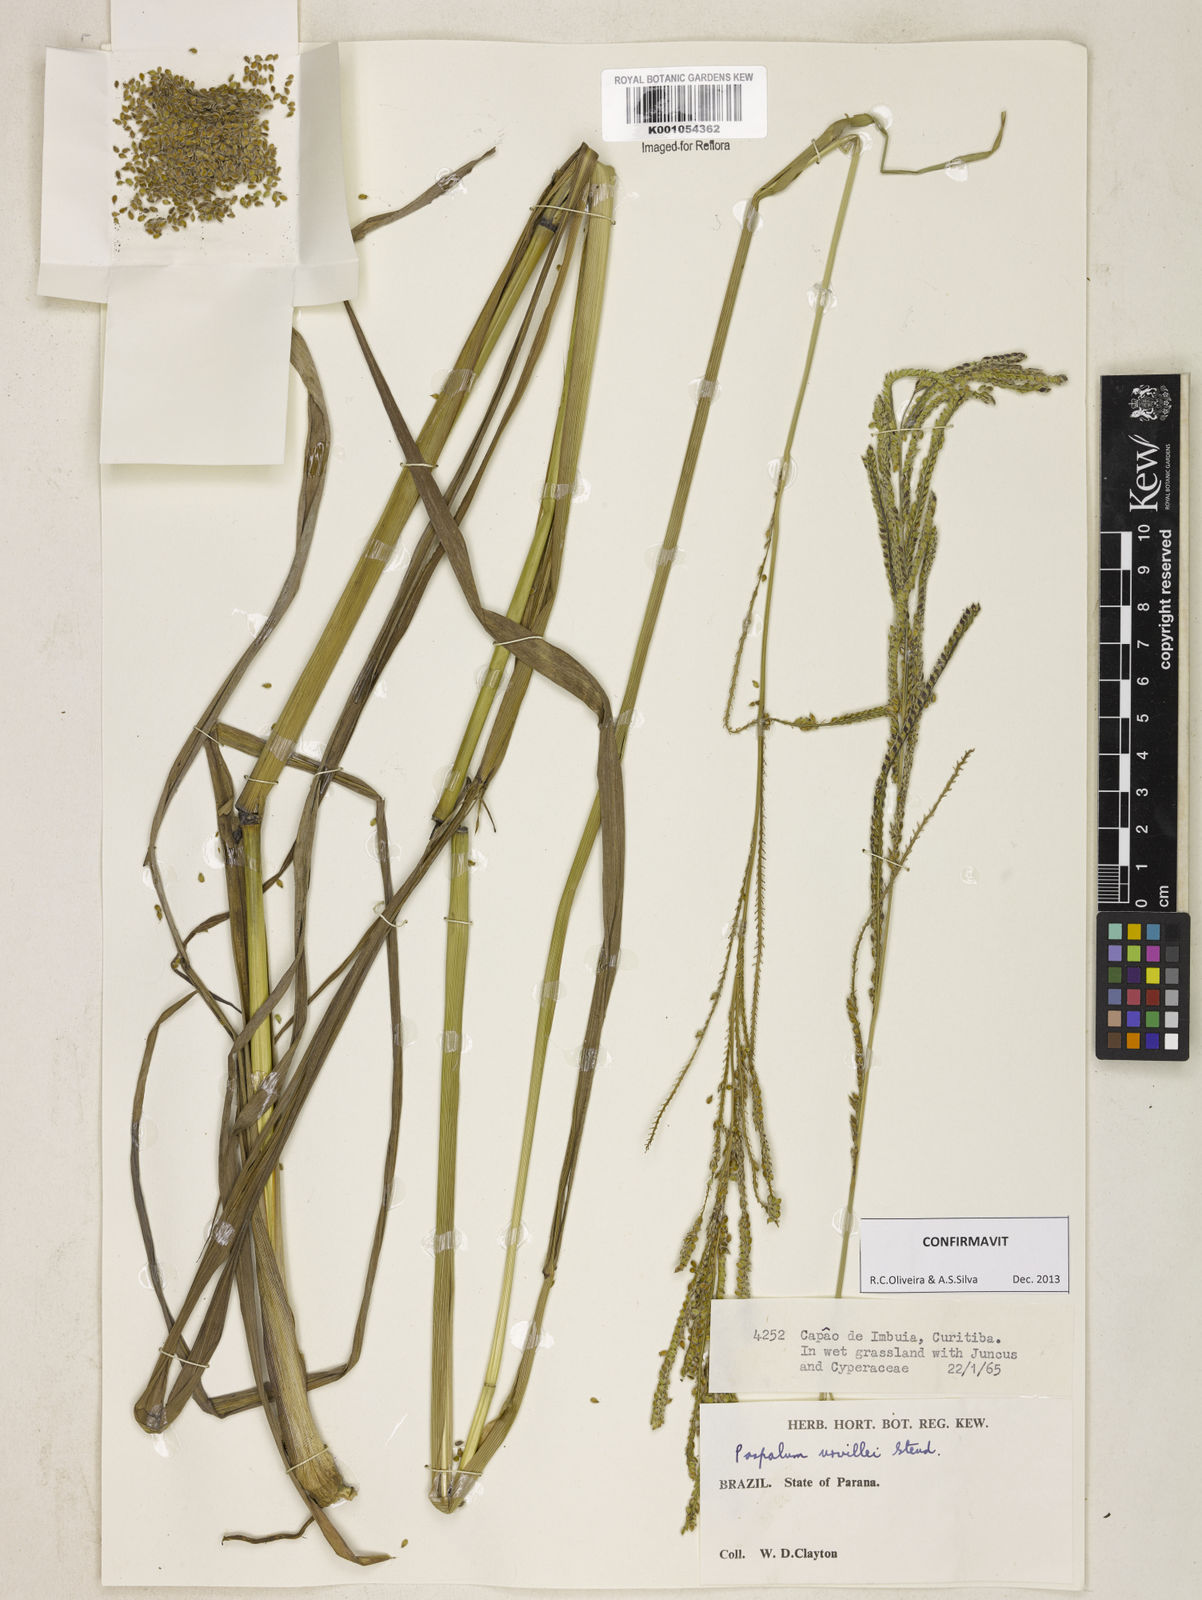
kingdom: Plantae
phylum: Tracheophyta
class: Liliopsida
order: Poales
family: Poaceae
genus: Paspalum
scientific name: Paspalum urvillei
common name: Vasey's grass
